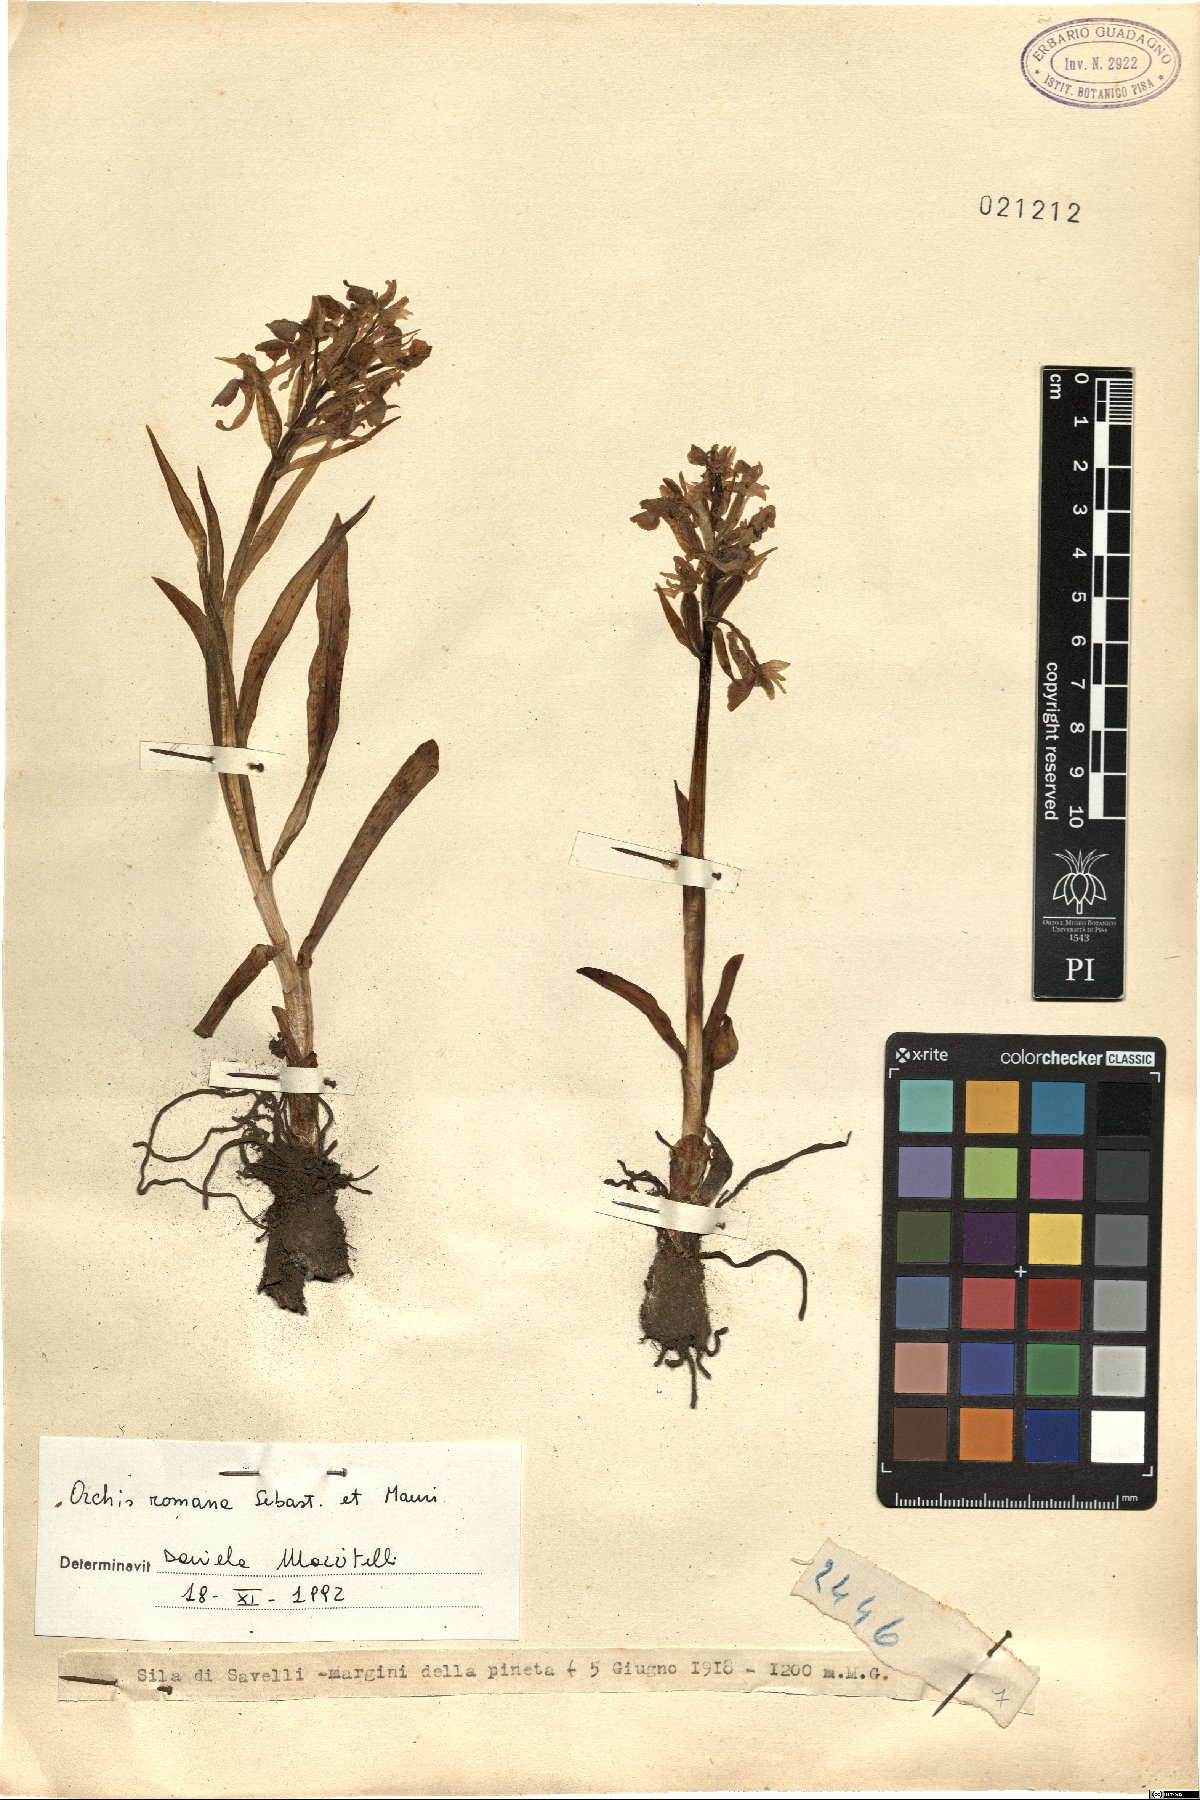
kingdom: Plantae
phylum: Tracheophyta
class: Liliopsida
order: Asparagales
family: Orchidaceae
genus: Dactylorhiza
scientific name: Dactylorhiza romana
